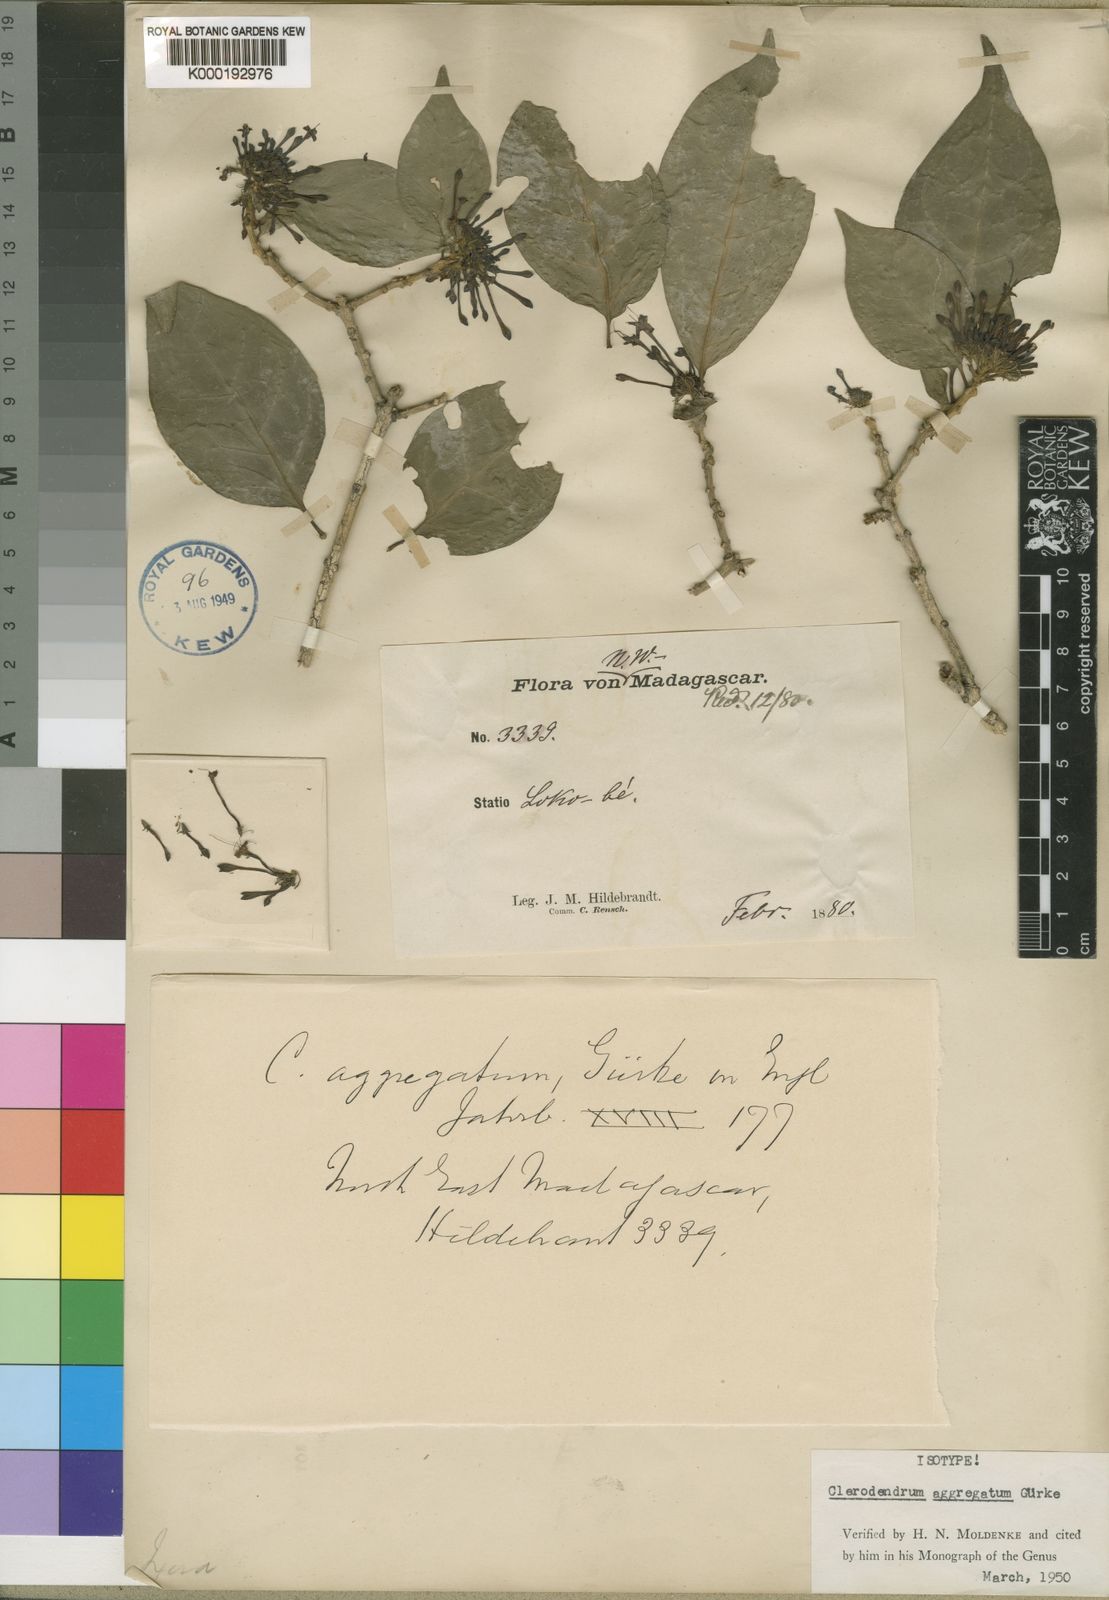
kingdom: Plantae
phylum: Tracheophyta
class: Magnoliopsida
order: Lamiales
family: Lamiaceae
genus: Clerodendrum
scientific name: Clerodendrum
